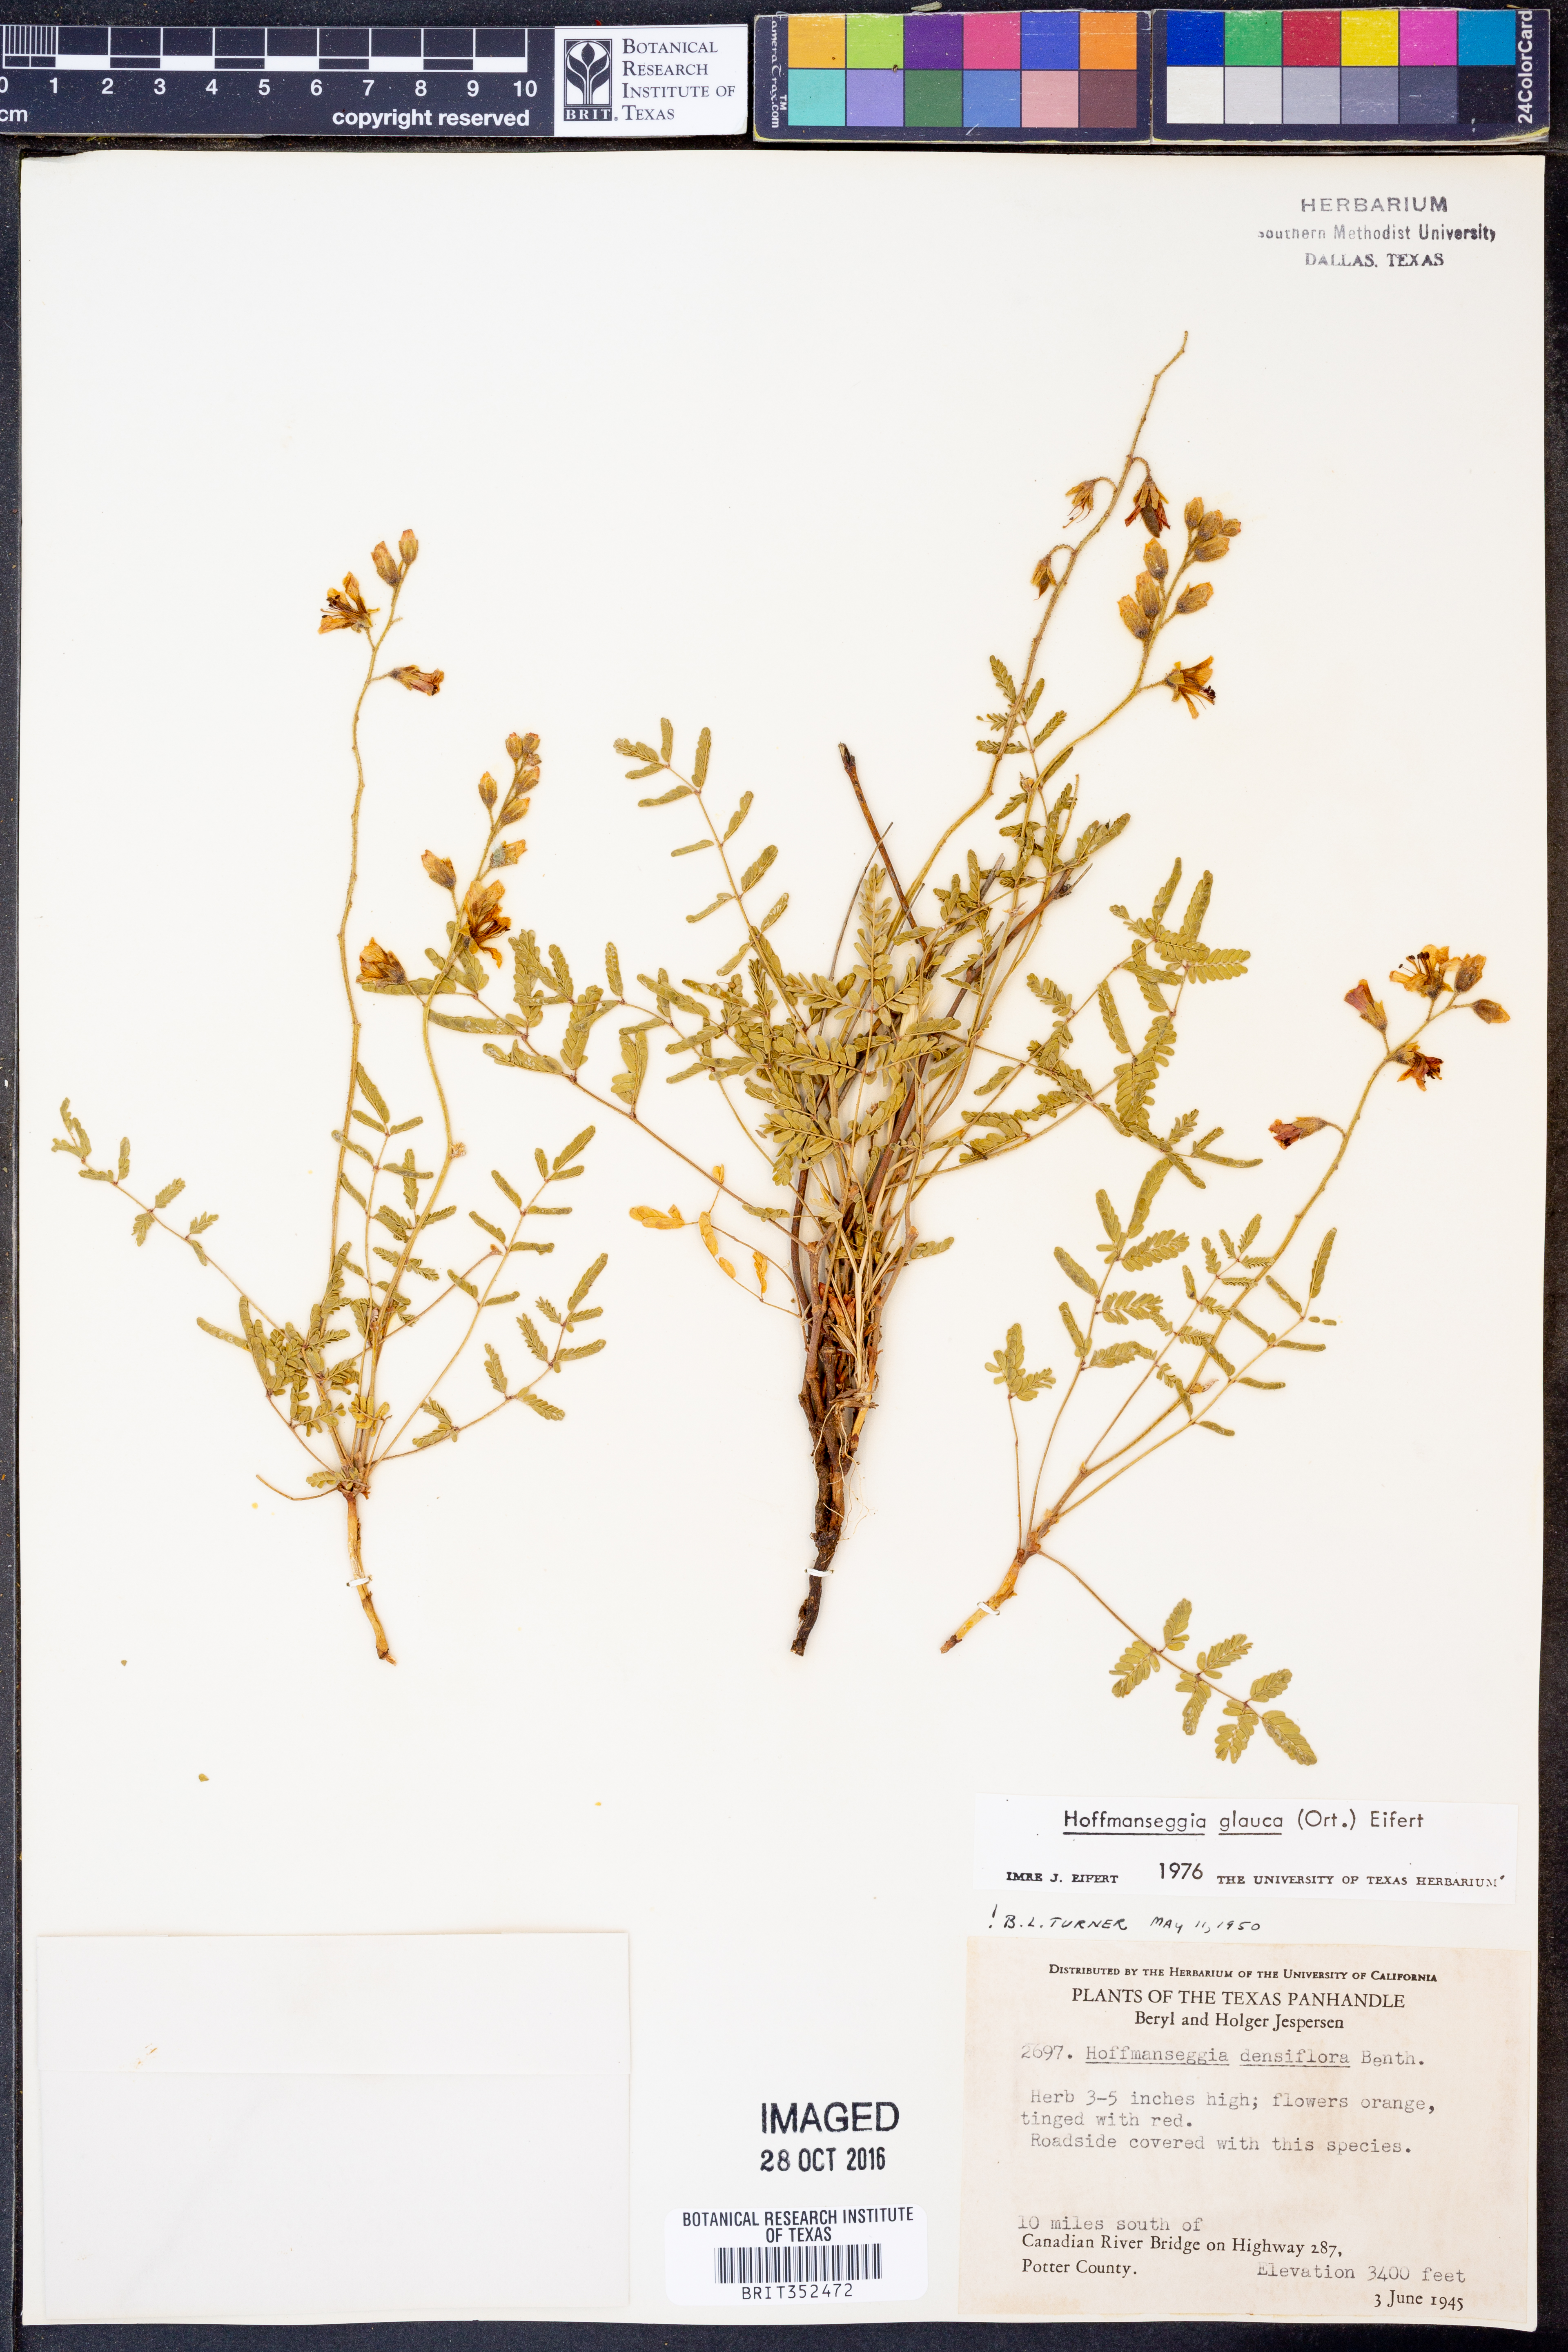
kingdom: Plantae
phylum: Tracheophyta
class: Magnoliopsida
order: Fabales
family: Fabaceae
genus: Hoffmannseggia
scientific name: Hoffmannseggia glauca
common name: Pignut
